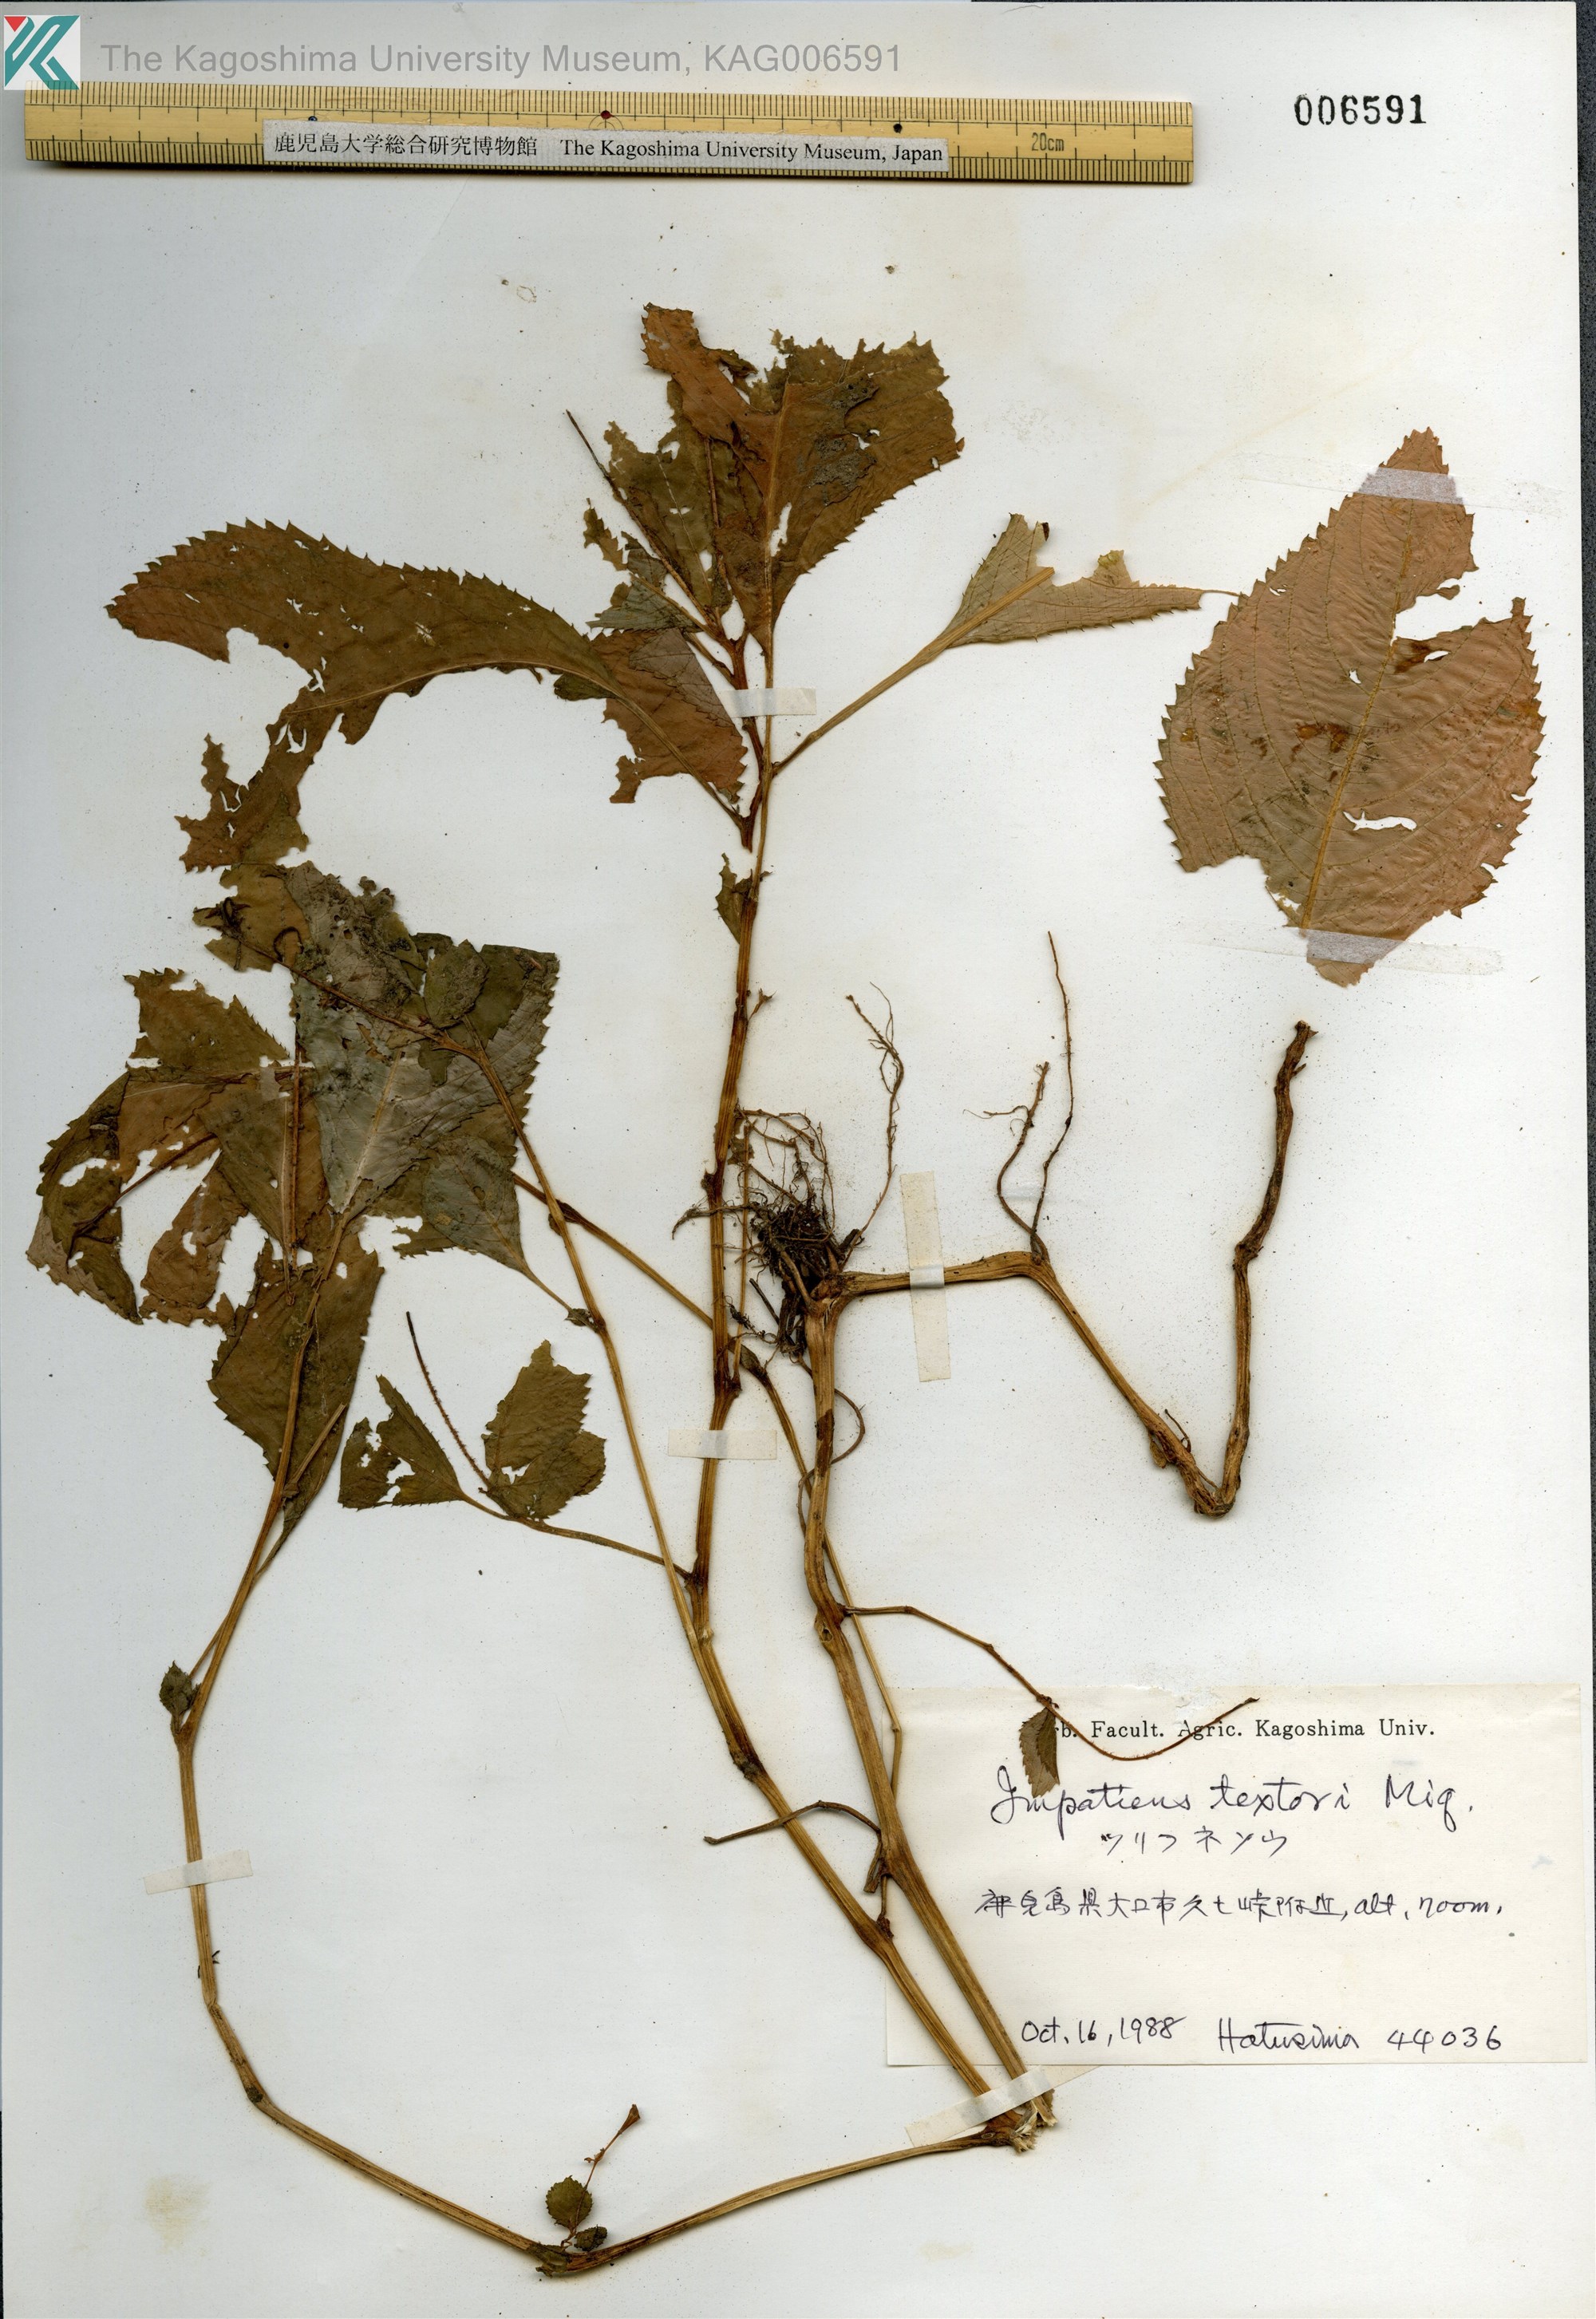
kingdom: Plantae
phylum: Tracheophyta
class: Magnoliopsida
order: Ericales
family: Balsaminaceae
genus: Impatiens
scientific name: Impatiens textorii
